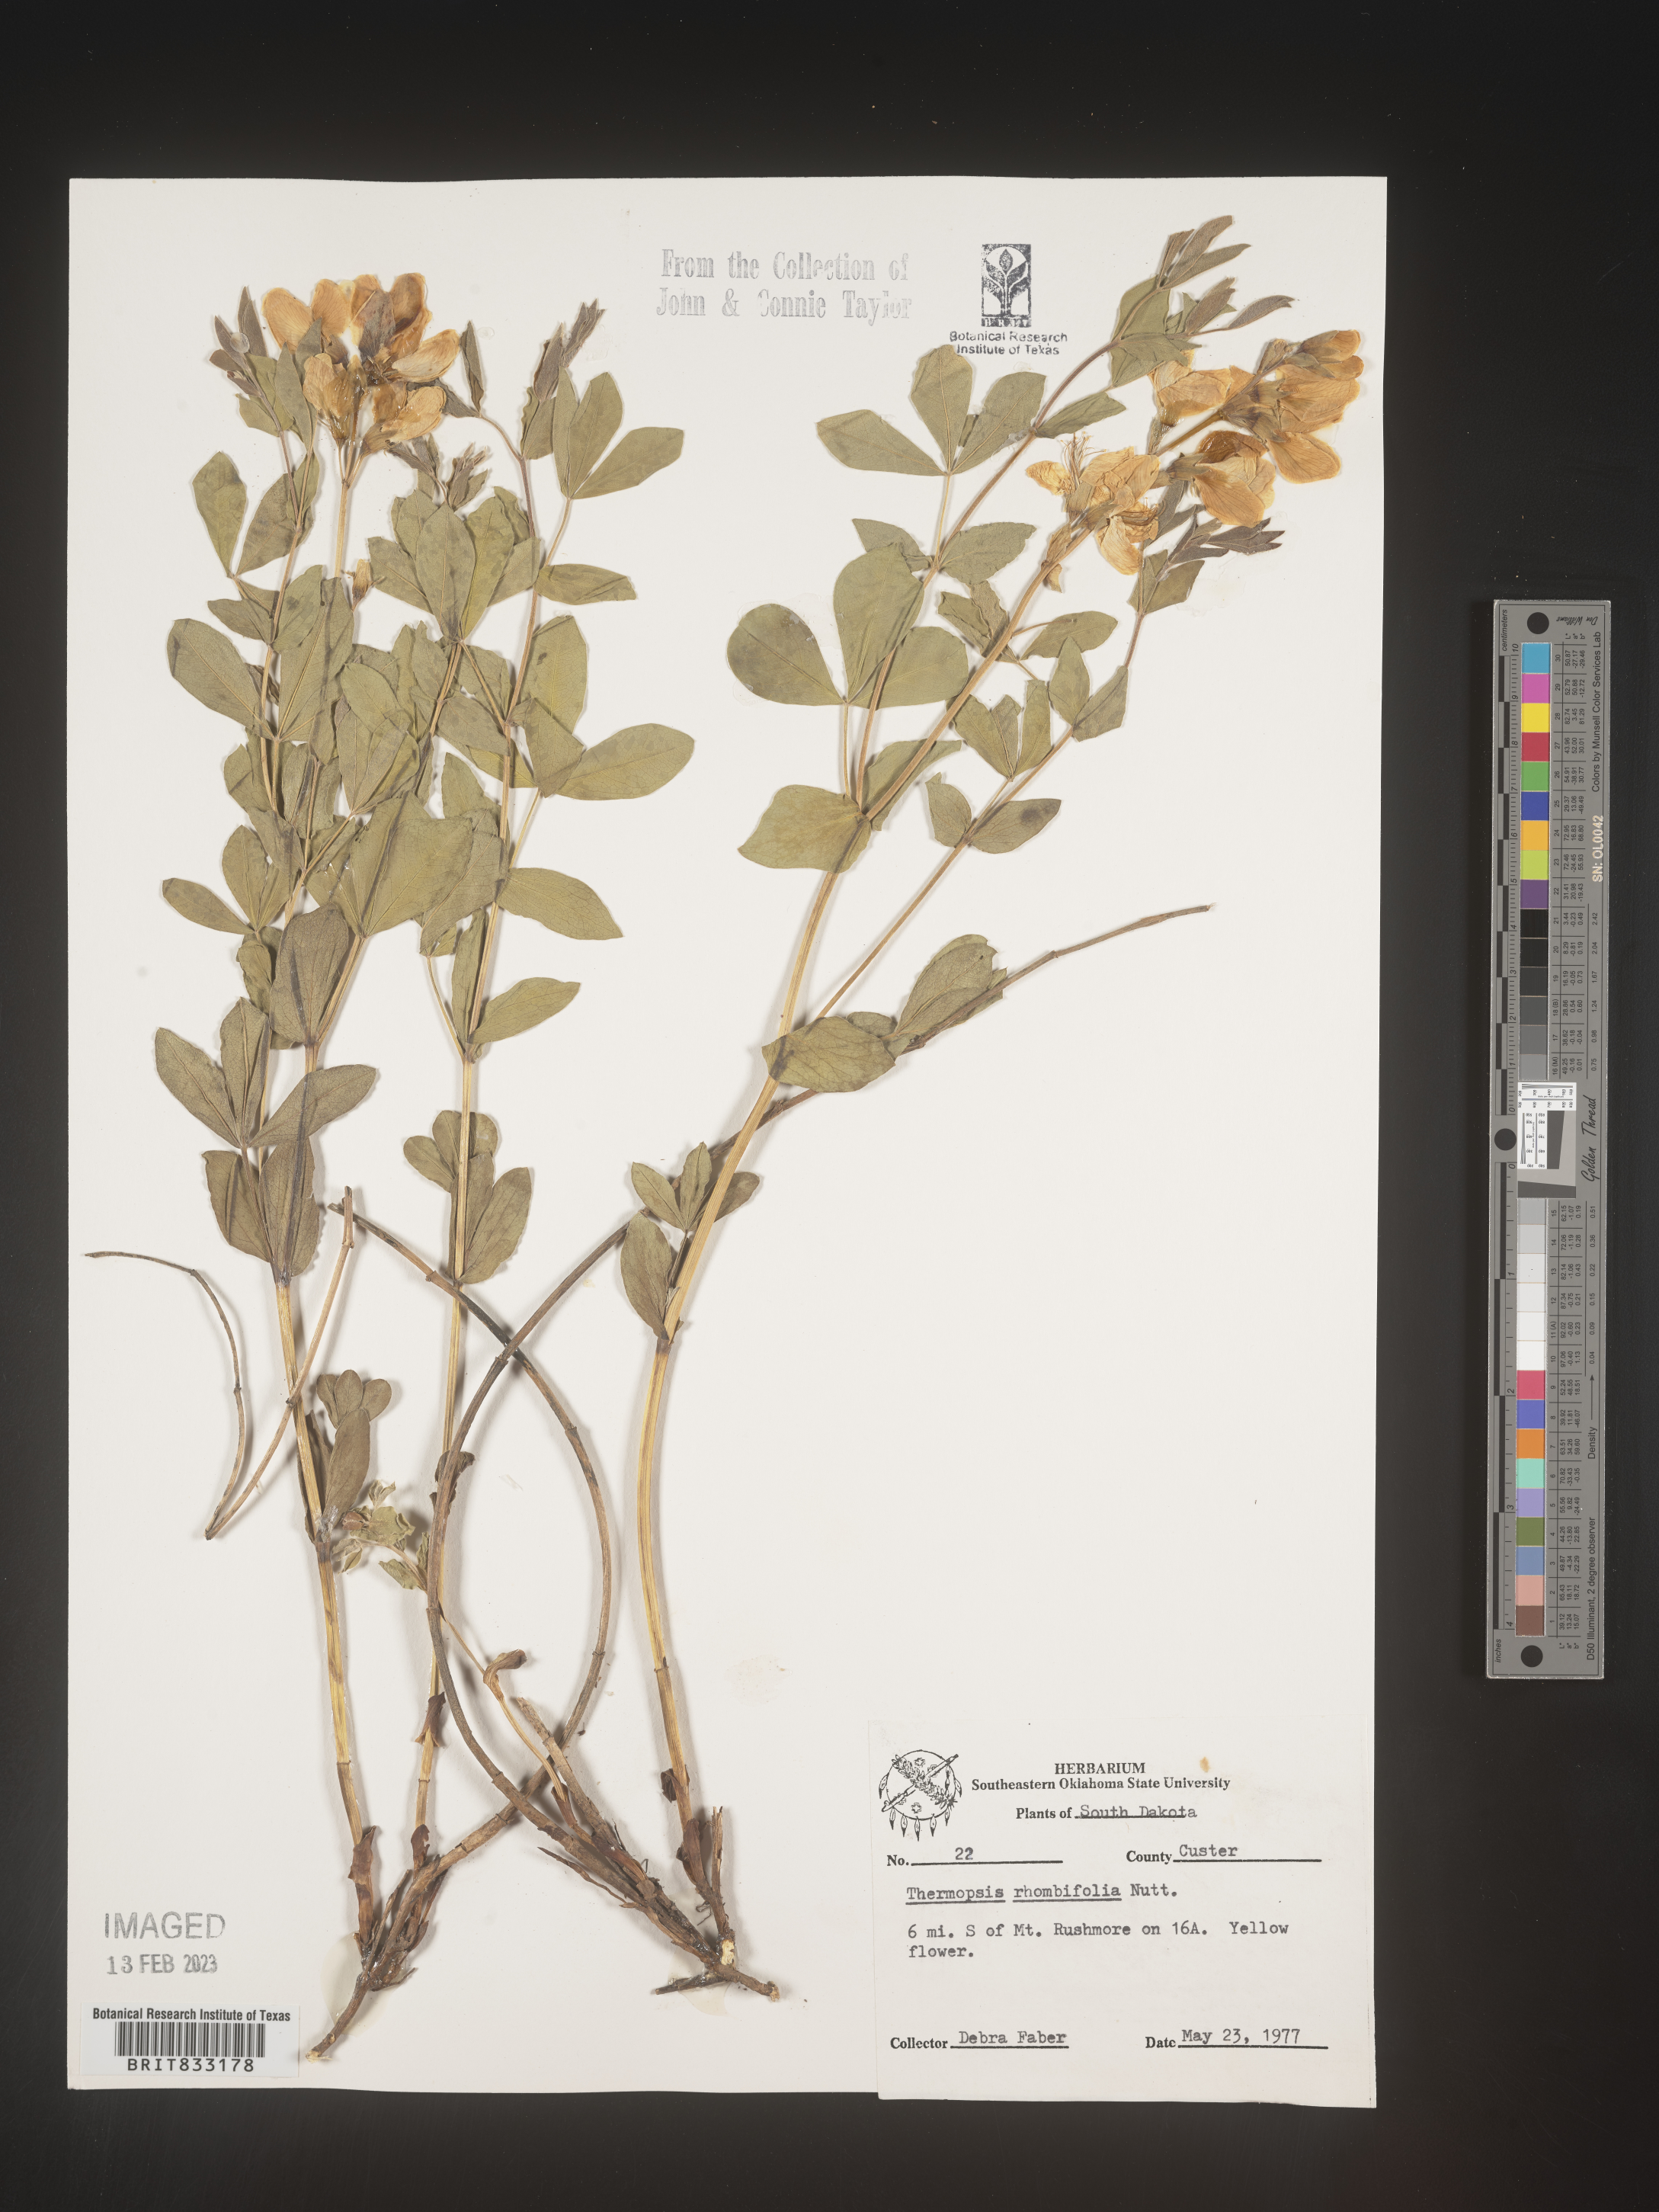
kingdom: Plantae
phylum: Tracheophyta
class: Magnoliopsida
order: Fabales
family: Fabaceae
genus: Thermopsis
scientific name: Thermopsis rhombifolia
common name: Circle-pod-pea
